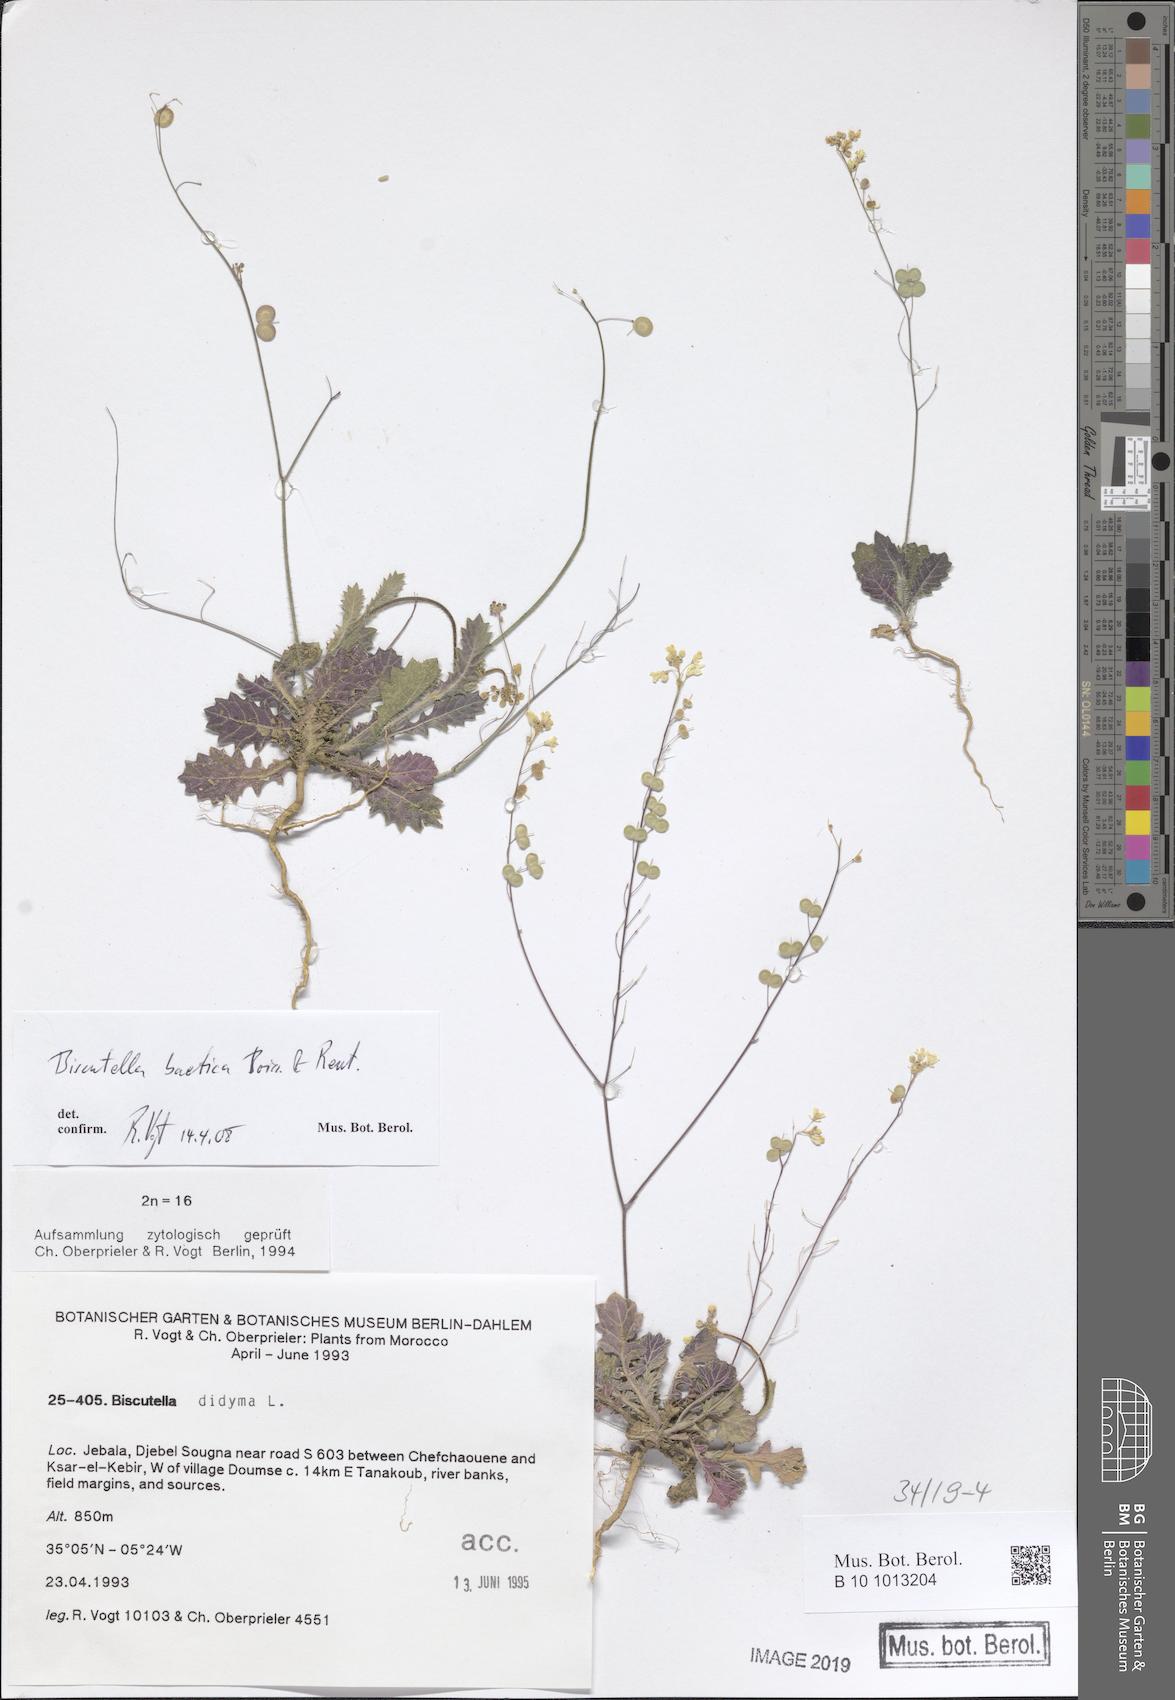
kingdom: Plantae
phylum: Tracheophyta
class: Magnoliopsida
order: Brassicales
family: Brassicaceae
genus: Biscutella
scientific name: Biscutella baetica
